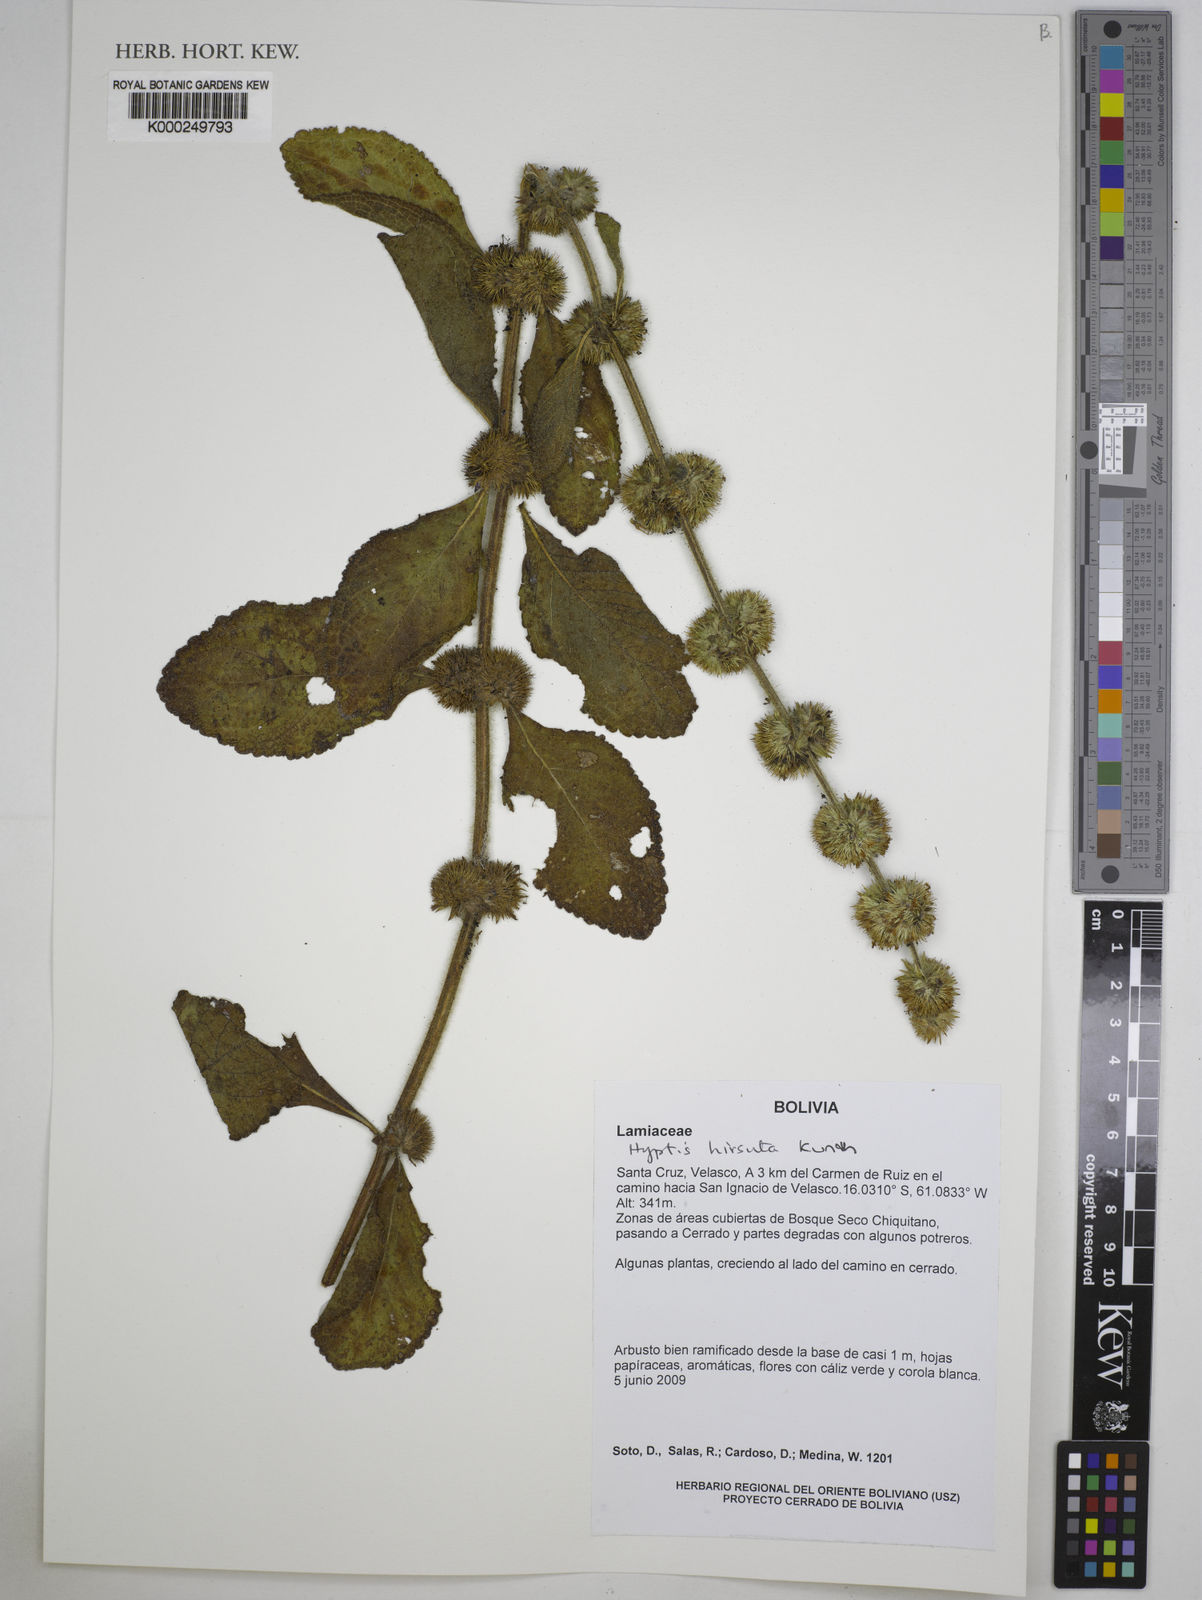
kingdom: Plantae
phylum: Tracheophyta
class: Magnoliopsida
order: Lamiales
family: Lamiaceae
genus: Hyptis
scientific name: Hyptis hirsuta
